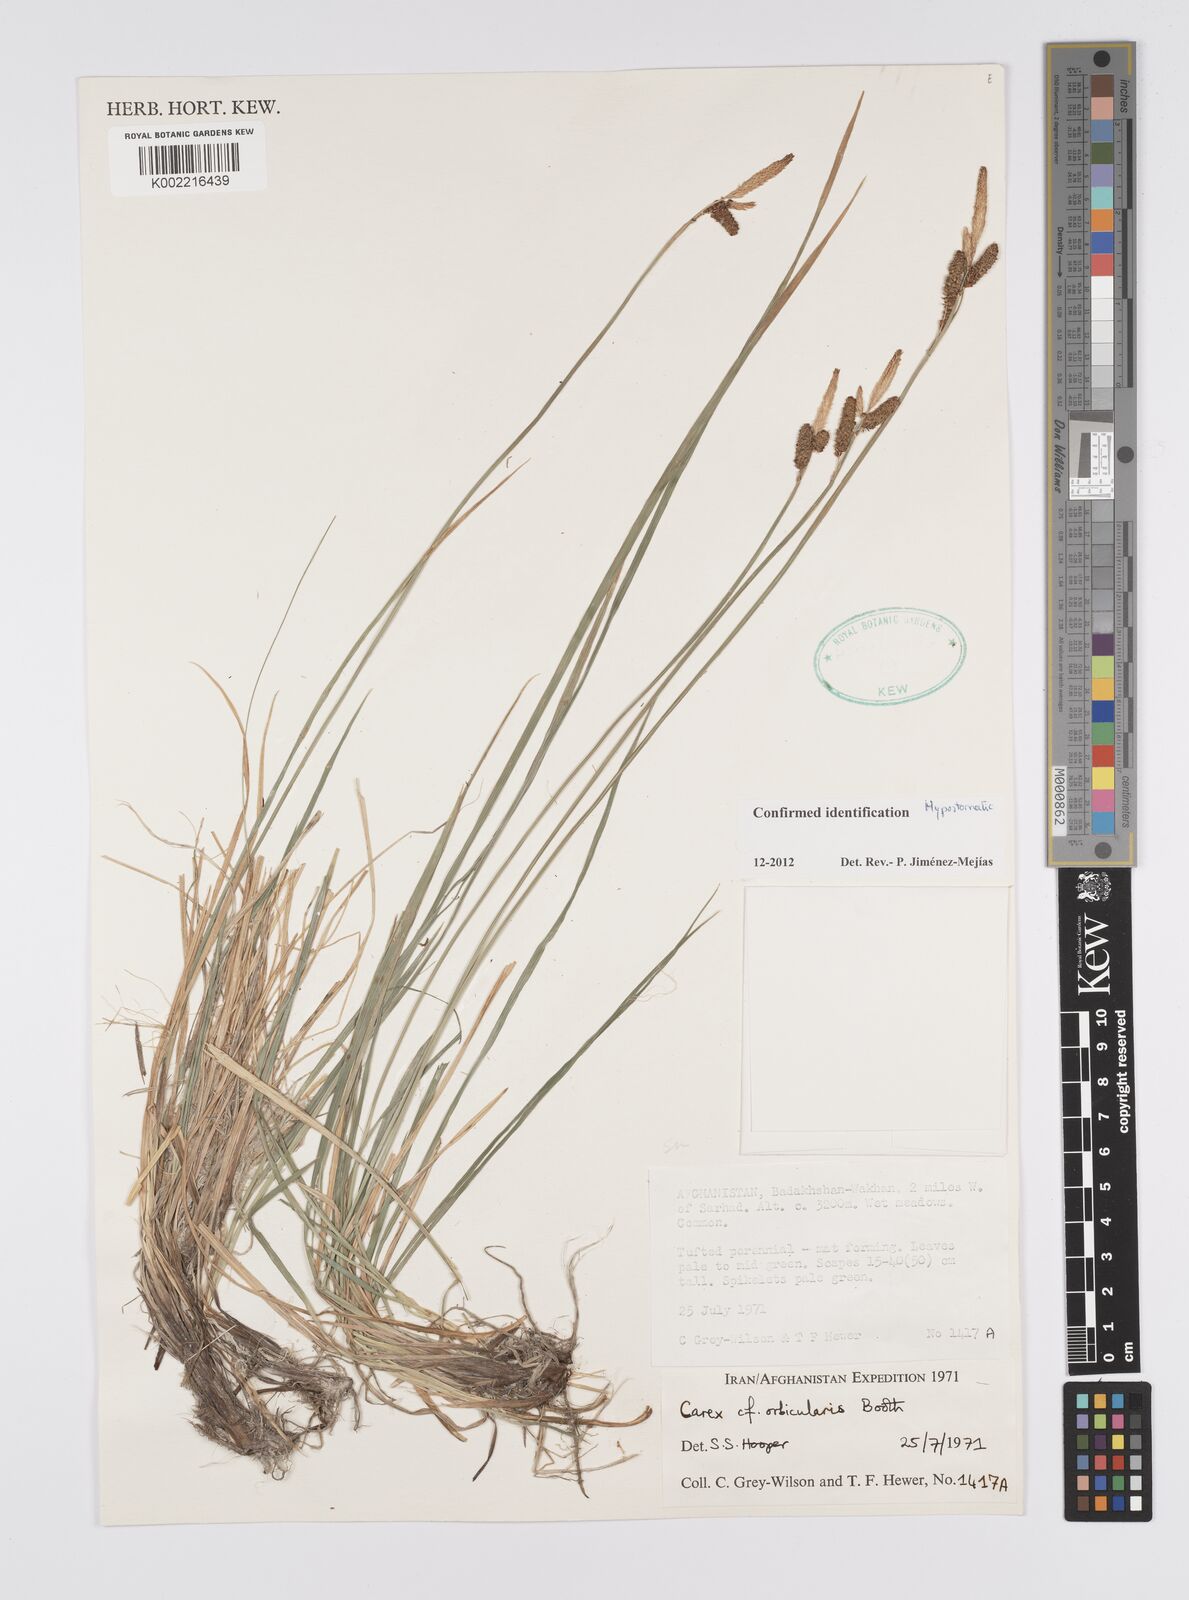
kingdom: Plantae
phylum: Tracheophyta
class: Liliopsida
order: Poales
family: Cyperaceae
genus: Carex
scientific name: Carex orbicularis
